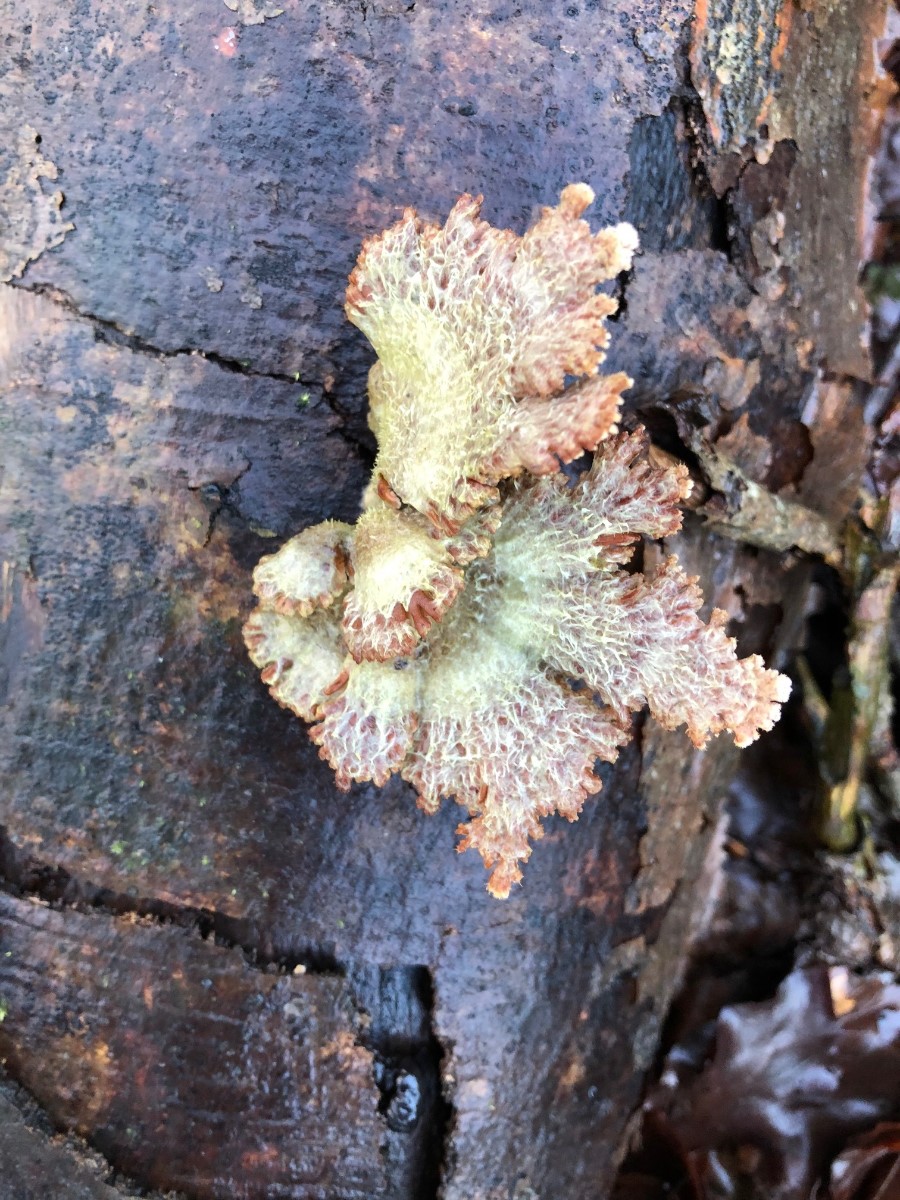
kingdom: Fungi
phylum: Basidiomycota
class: Agaricomycetes
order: Agaricales
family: Schizophyllaceae
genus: Schizophyllum
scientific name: Schizophyllum commune
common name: kløvblad
